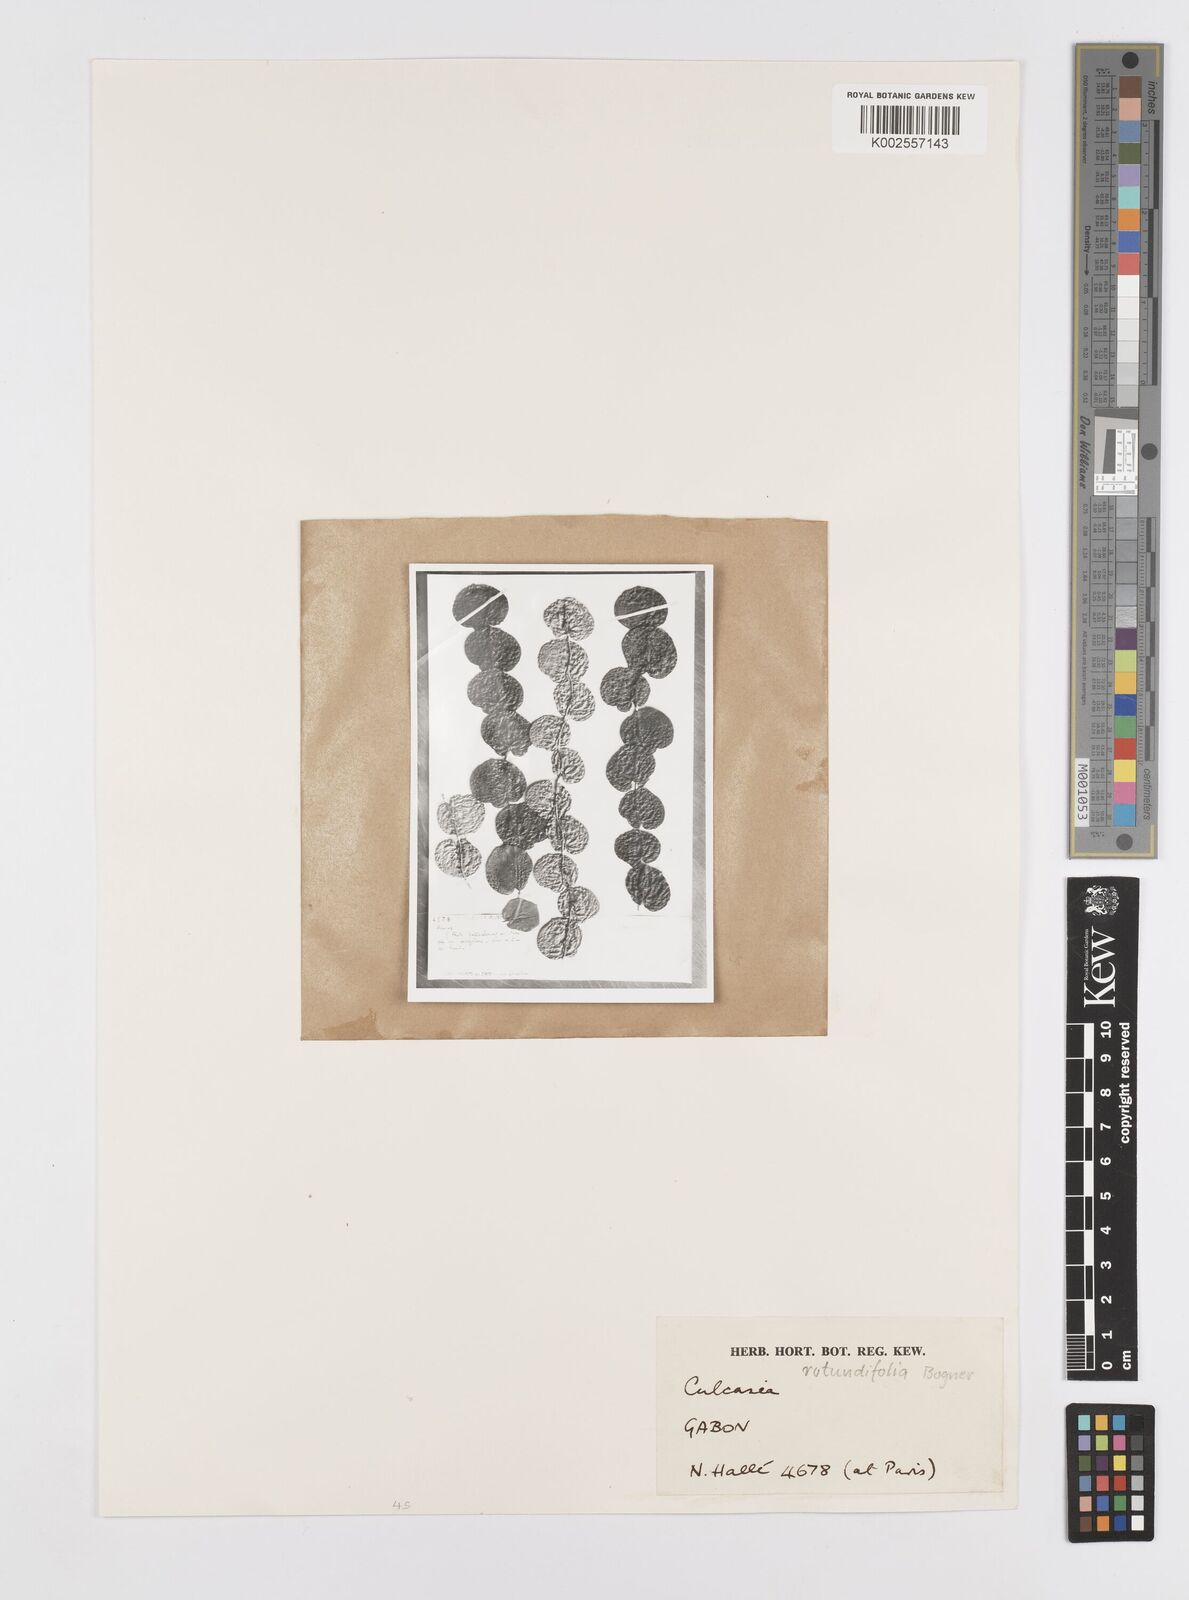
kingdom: Plantae
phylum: Tracheophyta
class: Liliopsida
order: Alismatales
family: Araceae
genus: Culcasia
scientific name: Culcasia rotundifolia
